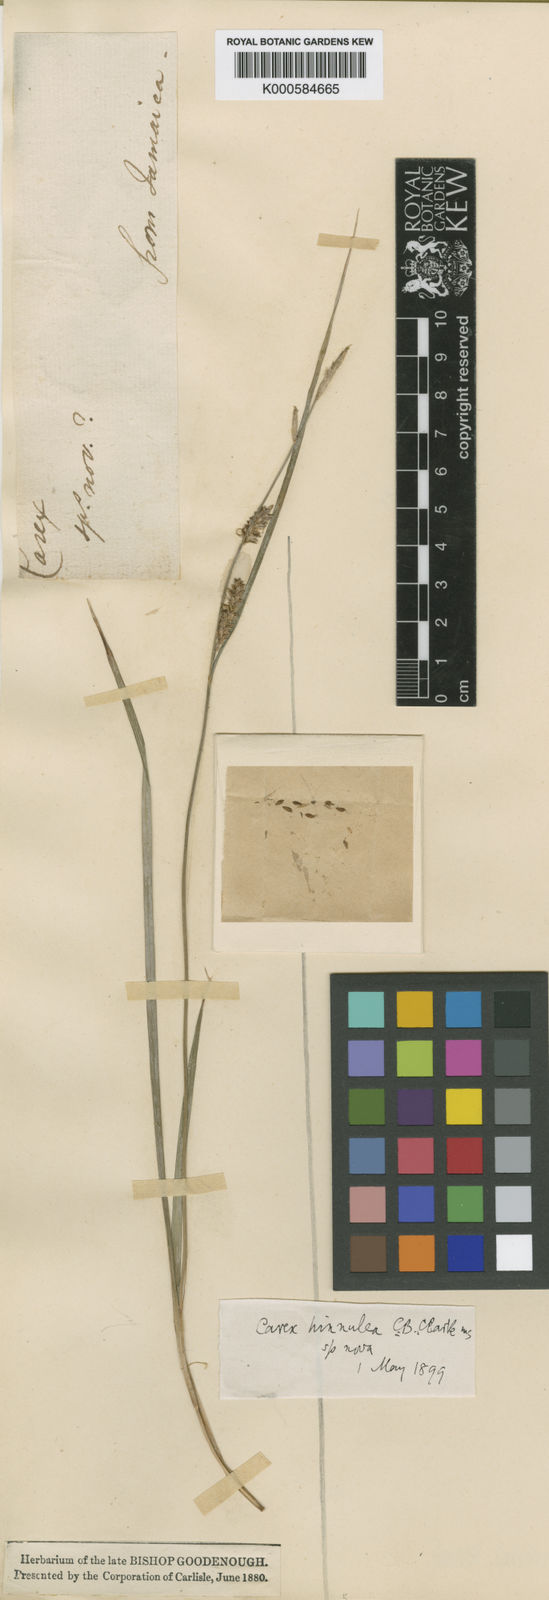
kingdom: Plantae
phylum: Tracheophyta
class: Liliopsida
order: Poales
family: Cyperaceae
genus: Carex
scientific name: Carex flacca
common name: Glaucous sedge
